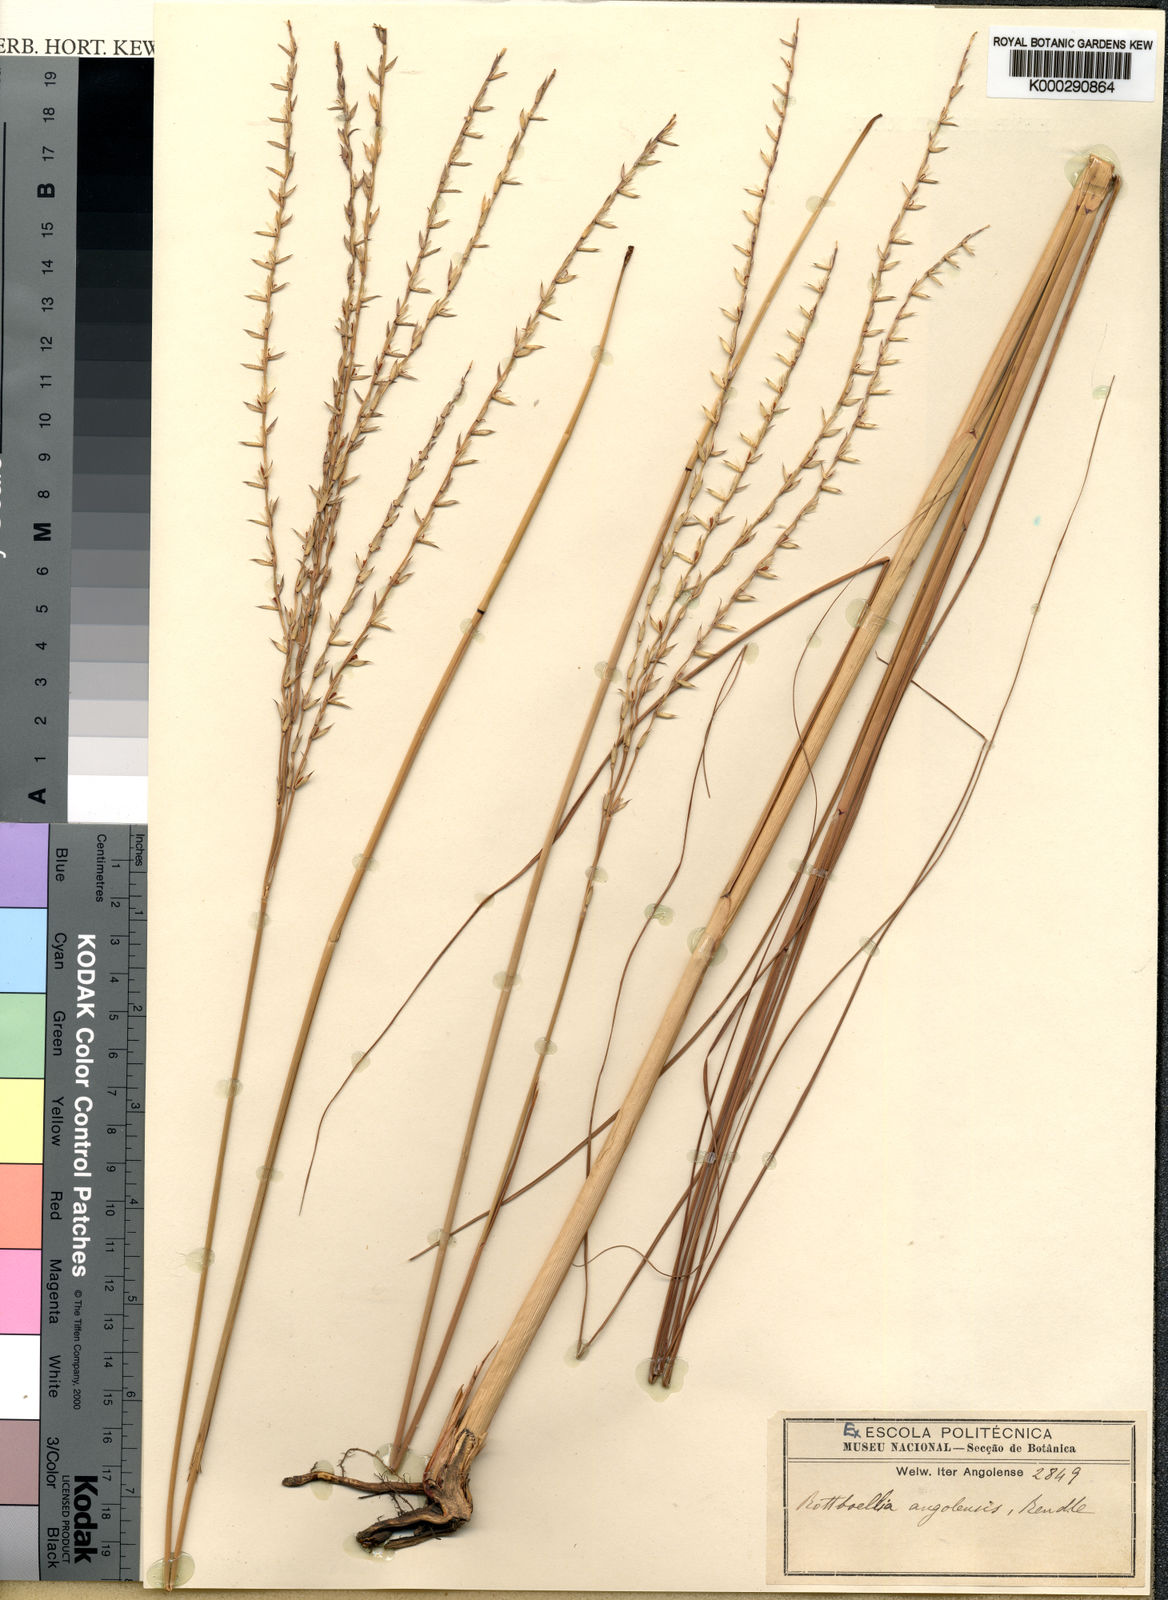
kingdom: Plantae
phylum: Tracheophyta
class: Liliopsida
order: Poales
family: Poaceae
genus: Phacelurus
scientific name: Phacelurus gabonensis
